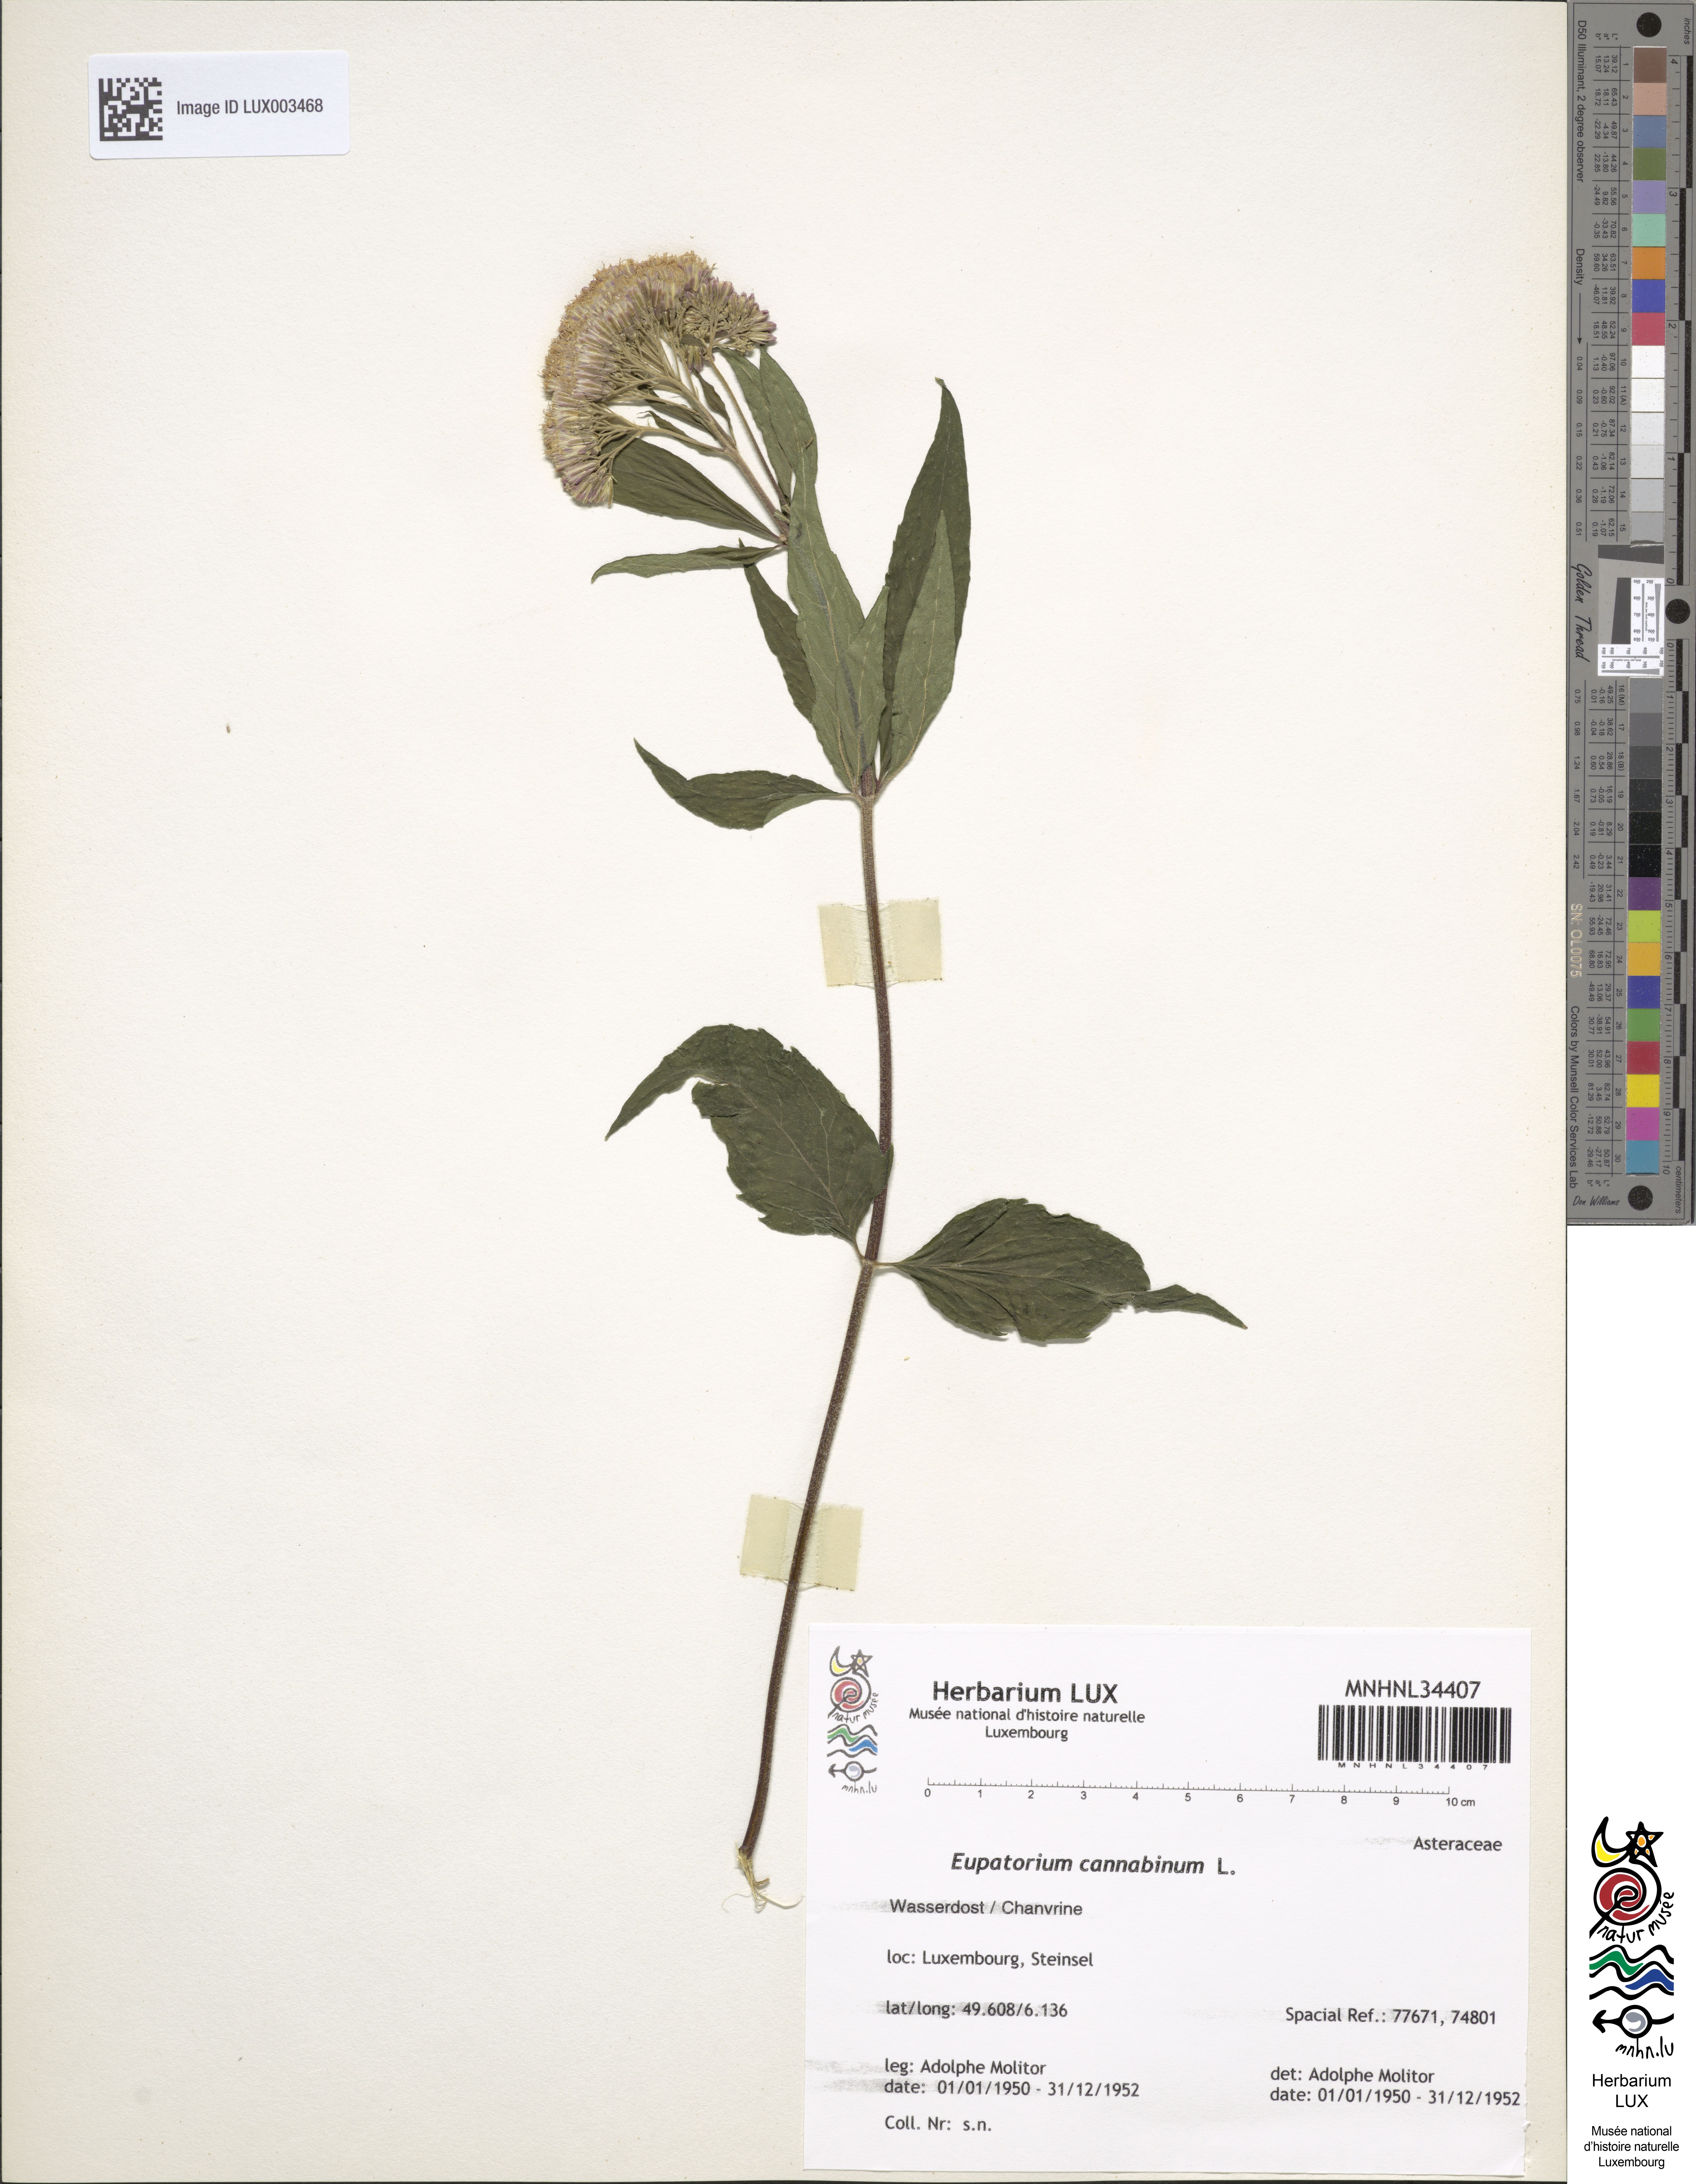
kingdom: Plantae
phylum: Tracheophyta
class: Magnoliopsida
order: Asterales
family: Asteraceae
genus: Eupatorium
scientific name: Eupatorium cannabinum
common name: Hemp-agrimony
